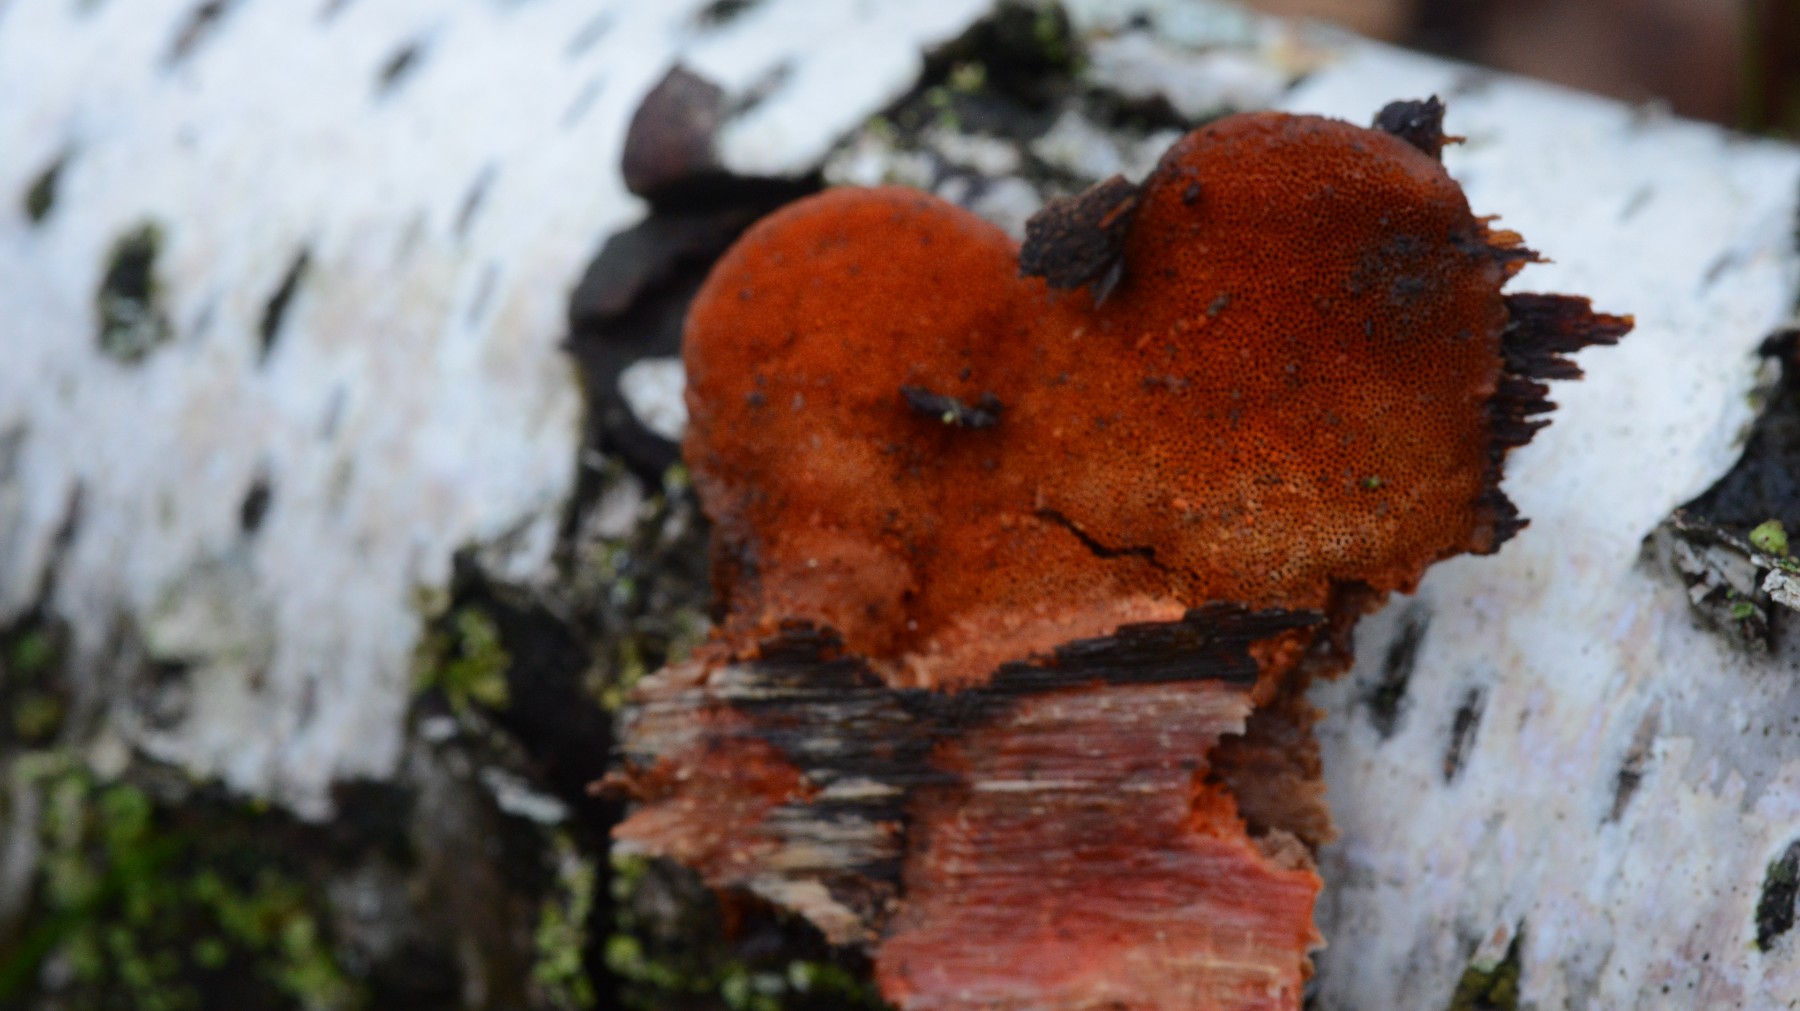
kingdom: Fungi
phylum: Basidiomycota
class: Agaricomycetes
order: Polyporales
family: Polyporaceae
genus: Trametes
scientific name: Trametes cinnabarina
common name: cinnoberporesvamp
